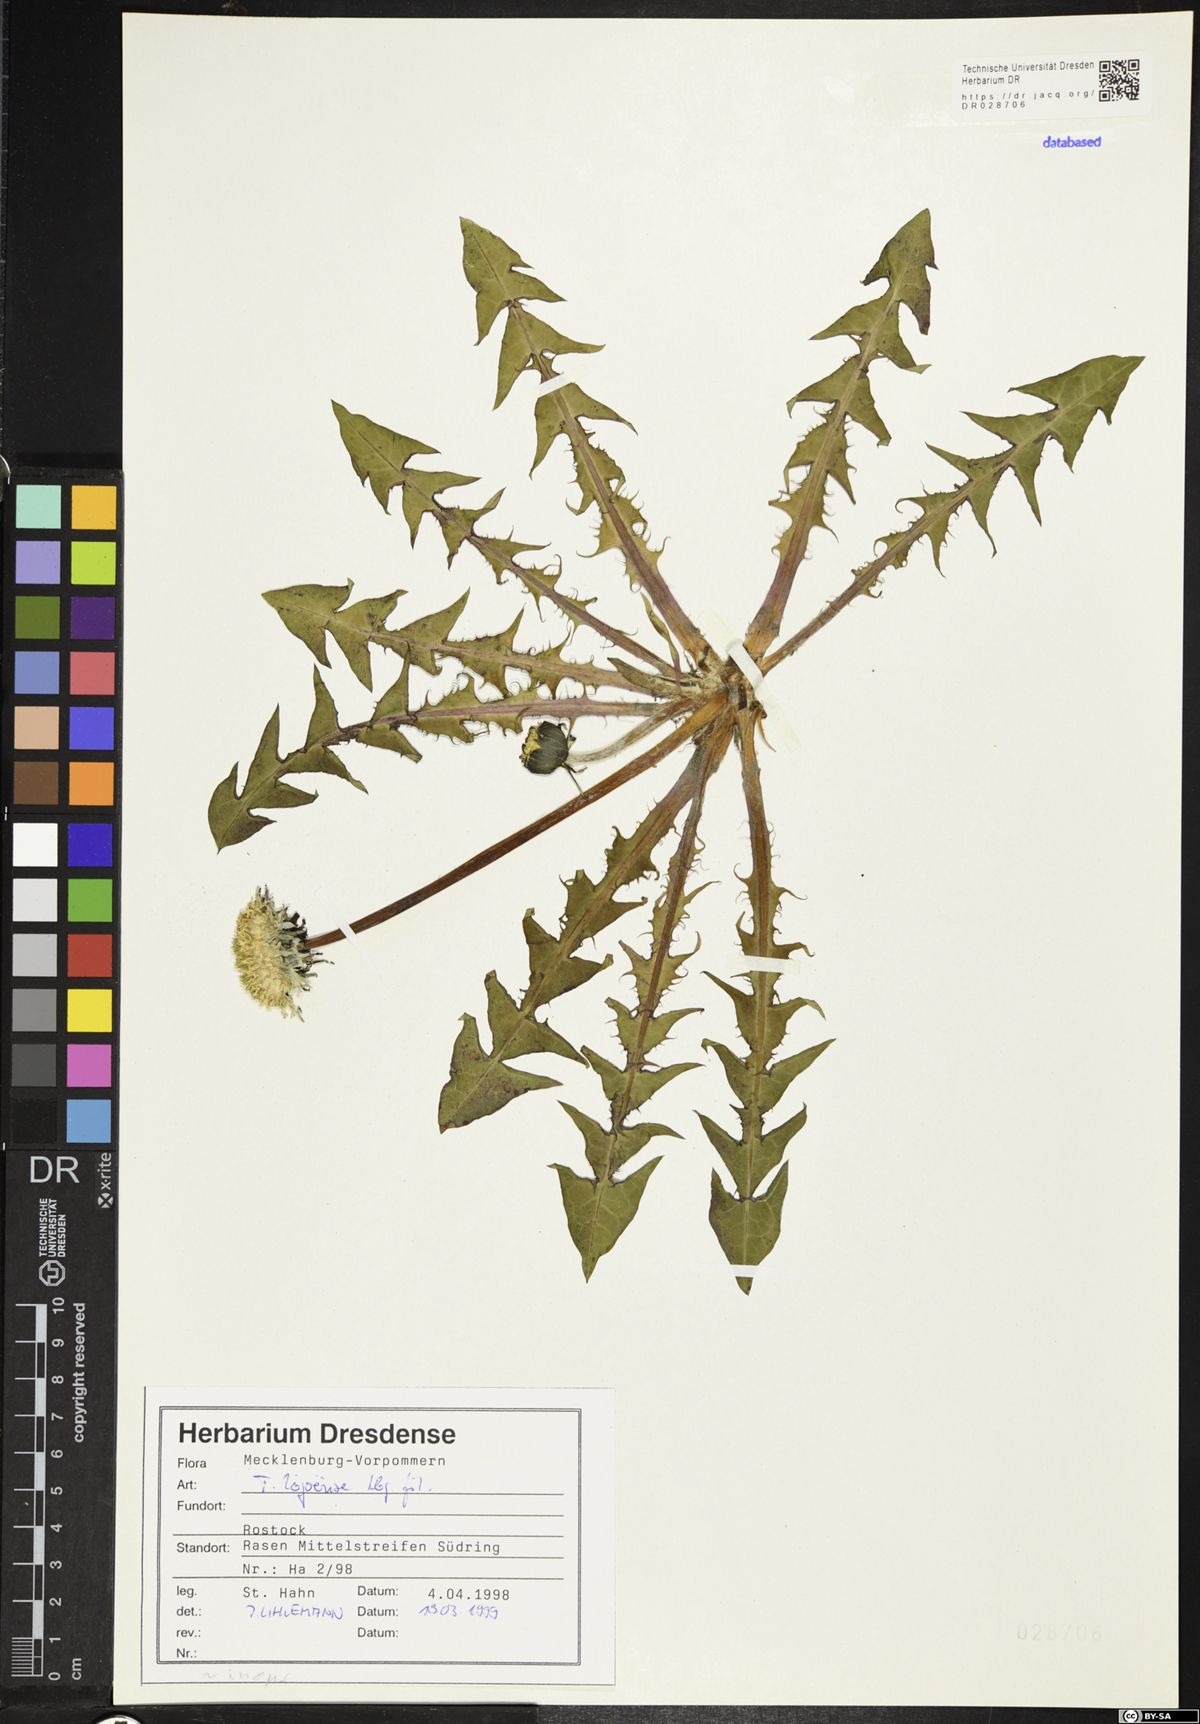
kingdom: Plantae
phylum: Tracheophyta
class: Magnoliopsida
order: Asterales
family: Asteraceae
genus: Taraxacum
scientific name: Taraxacum debrayi
